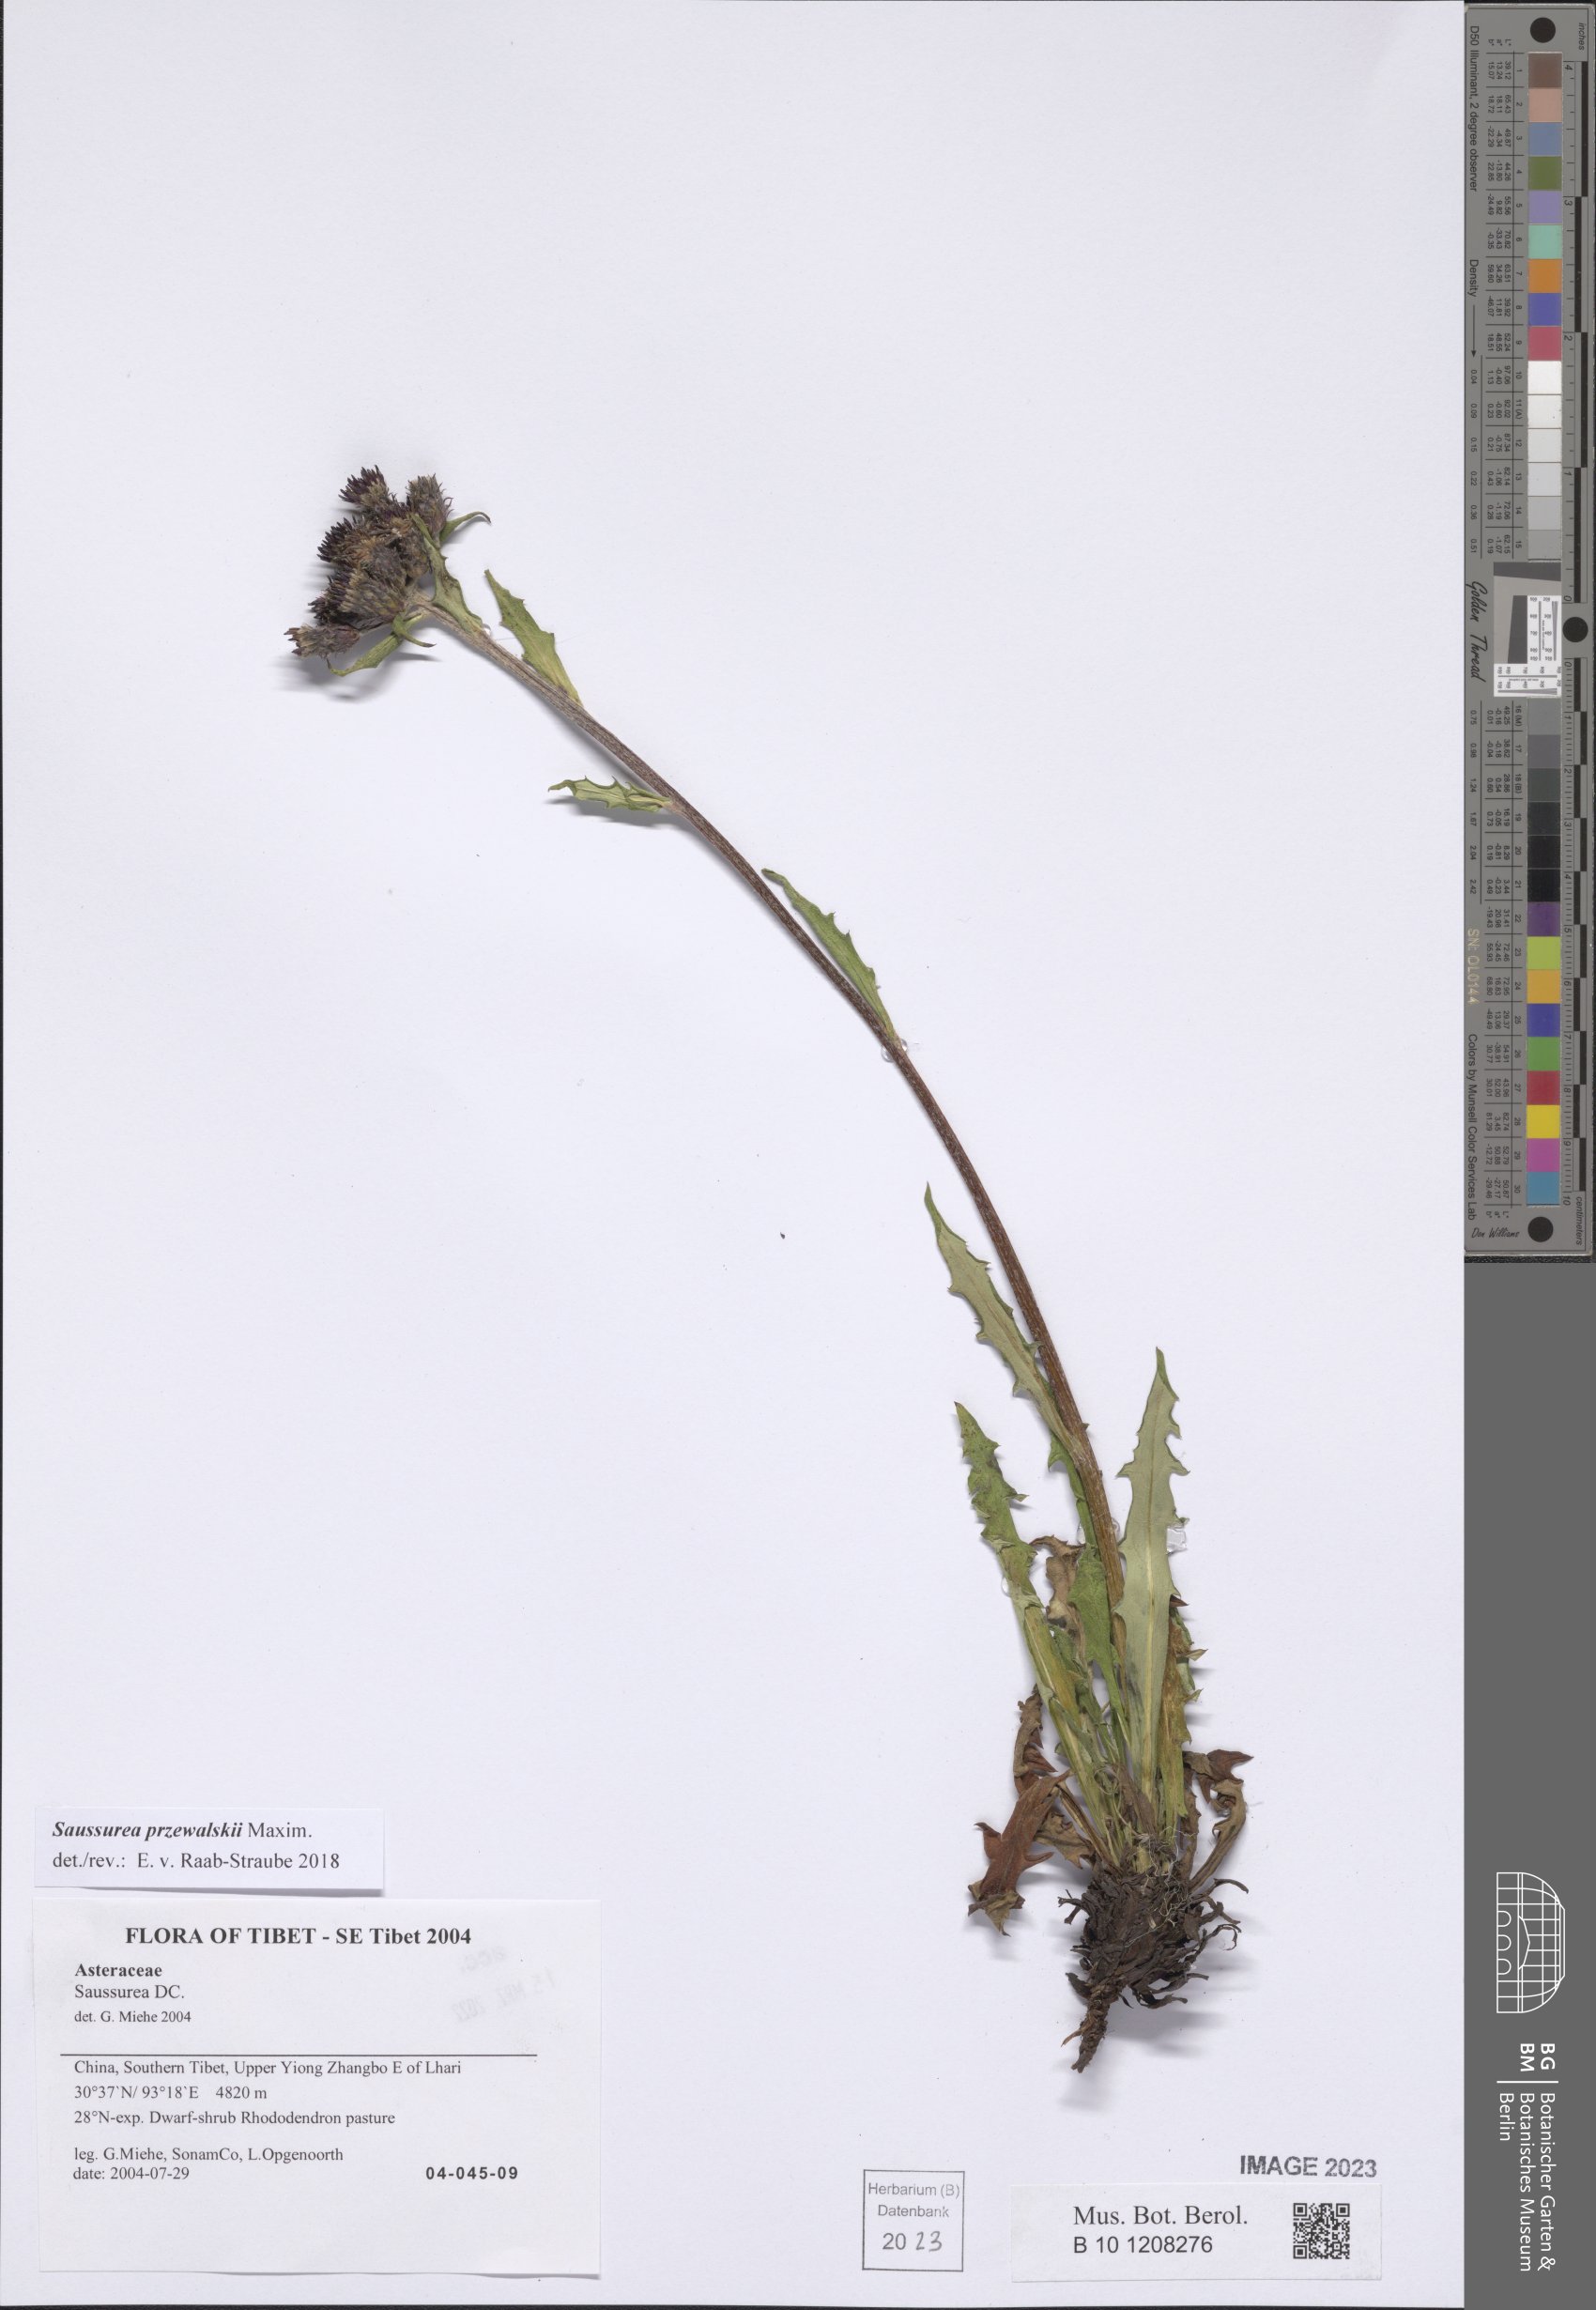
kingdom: Plantae
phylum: Tracheophyta
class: Magnoliopsida
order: Asterales
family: Asteraceae
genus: Saussurea
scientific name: Saussurea przewalskii
